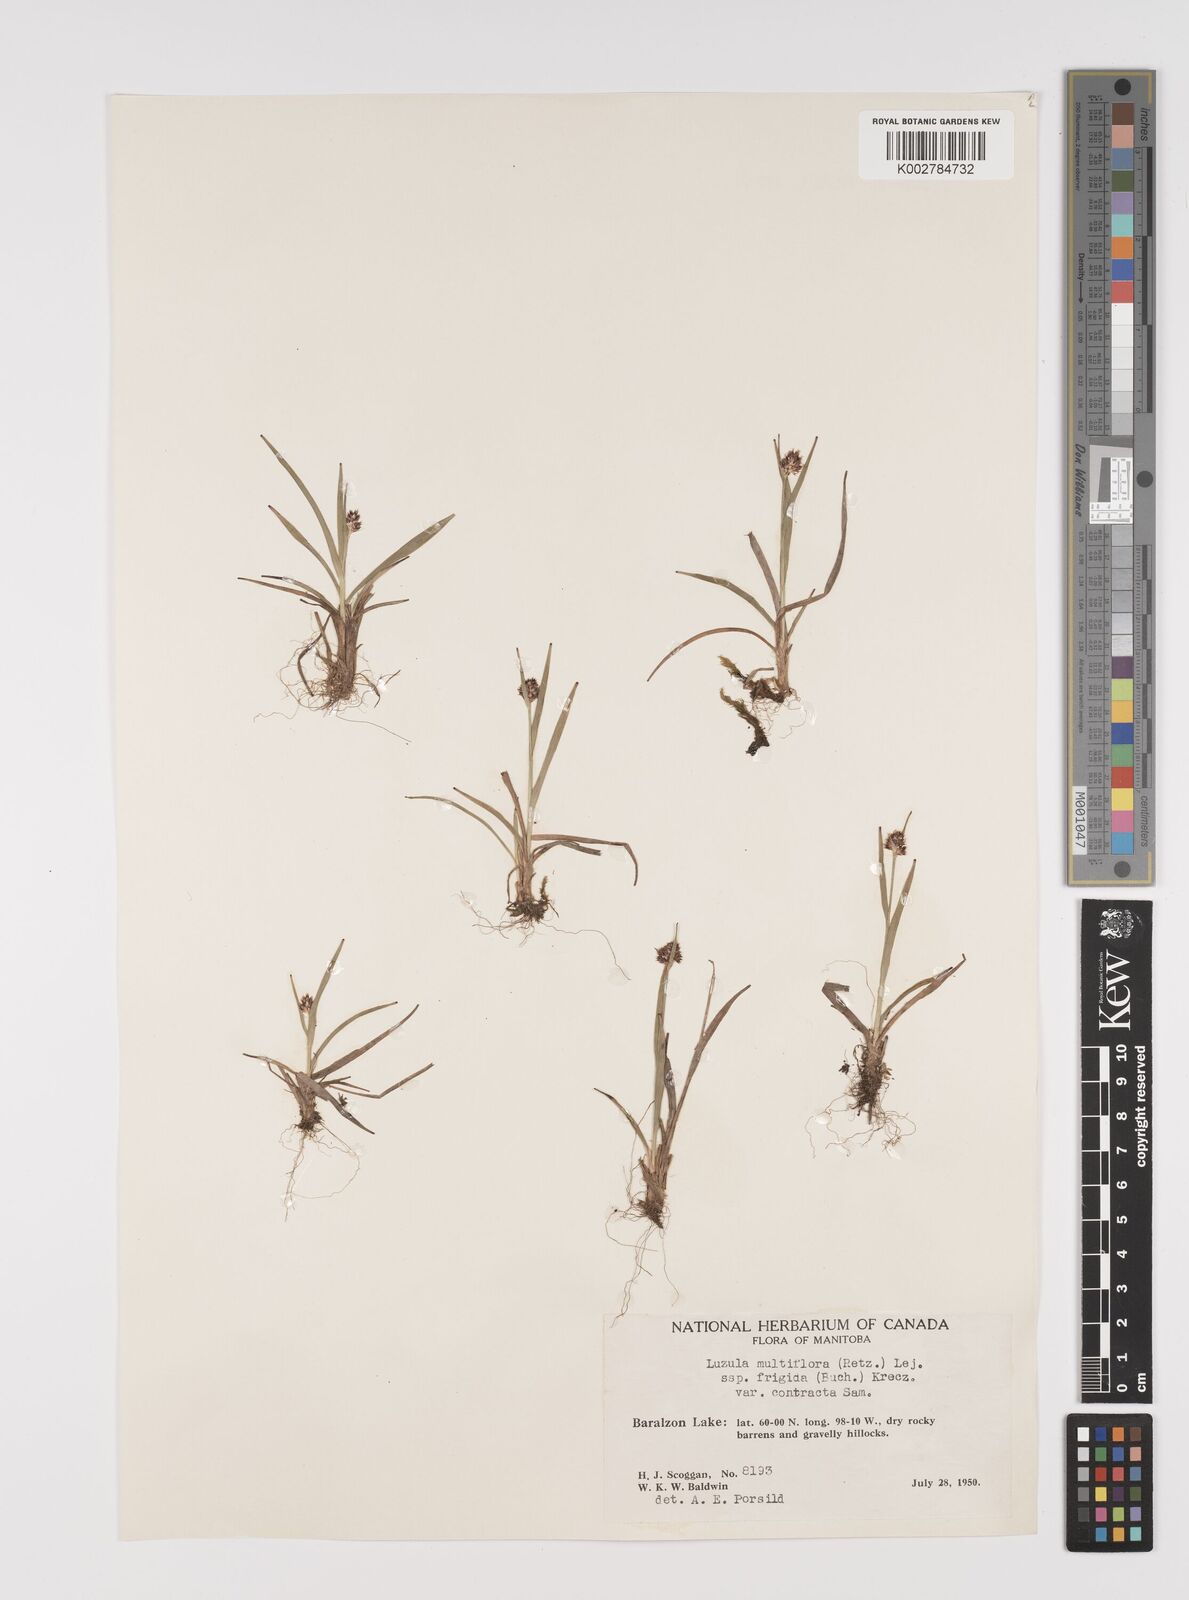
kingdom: Plantae
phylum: Tracheophyta
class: Liliopsida
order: Poales
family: Juncaceae
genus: Luzula
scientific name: Luzula campestris
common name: Field wood-rush
